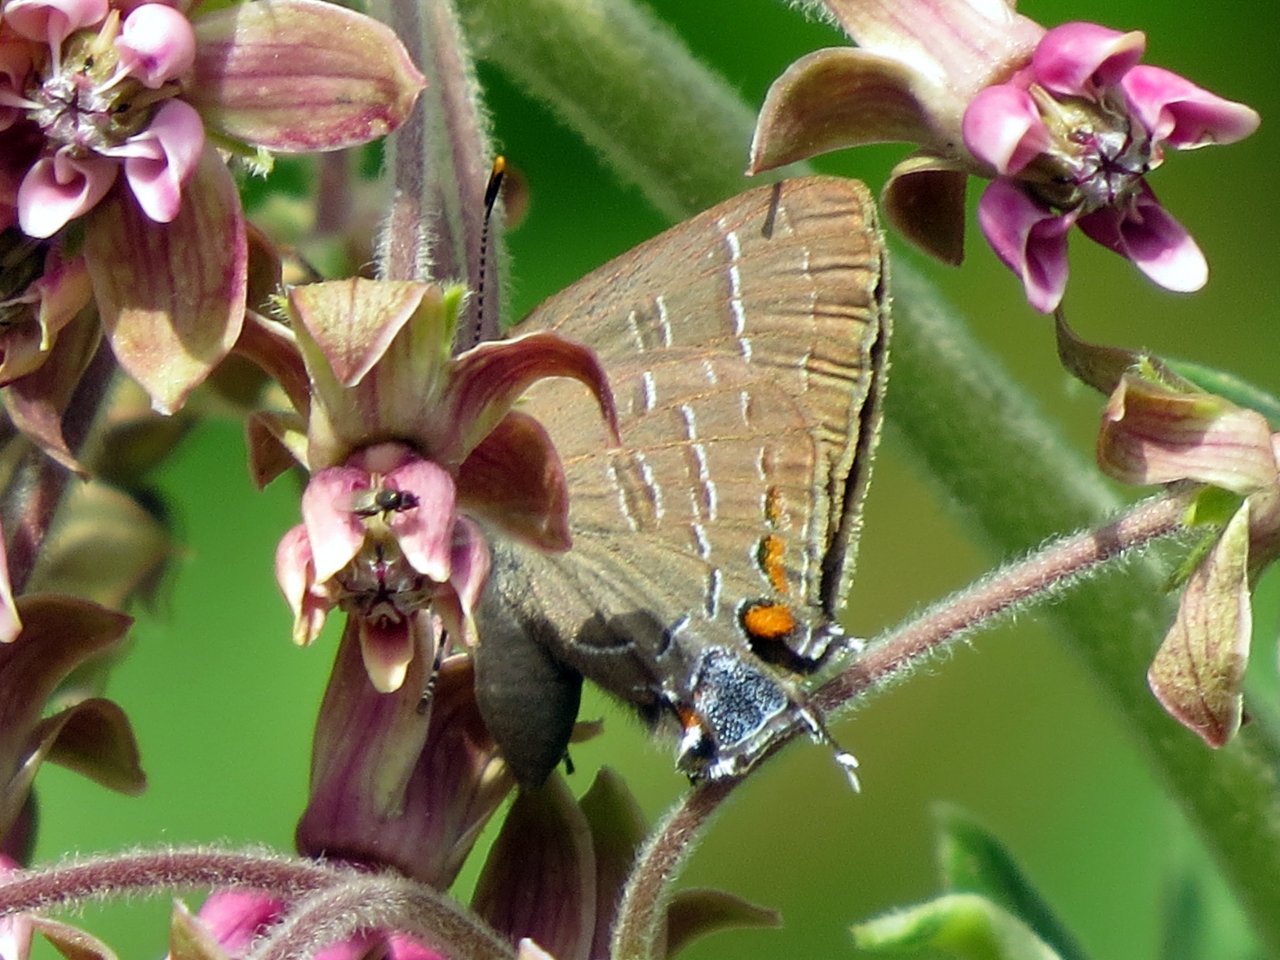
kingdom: Animalia
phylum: Arthropoda
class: Insecta
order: Lepidoptera
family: Lycaenidae
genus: Satyrium
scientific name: Satyrium calanus
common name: Banded Hairstreak
